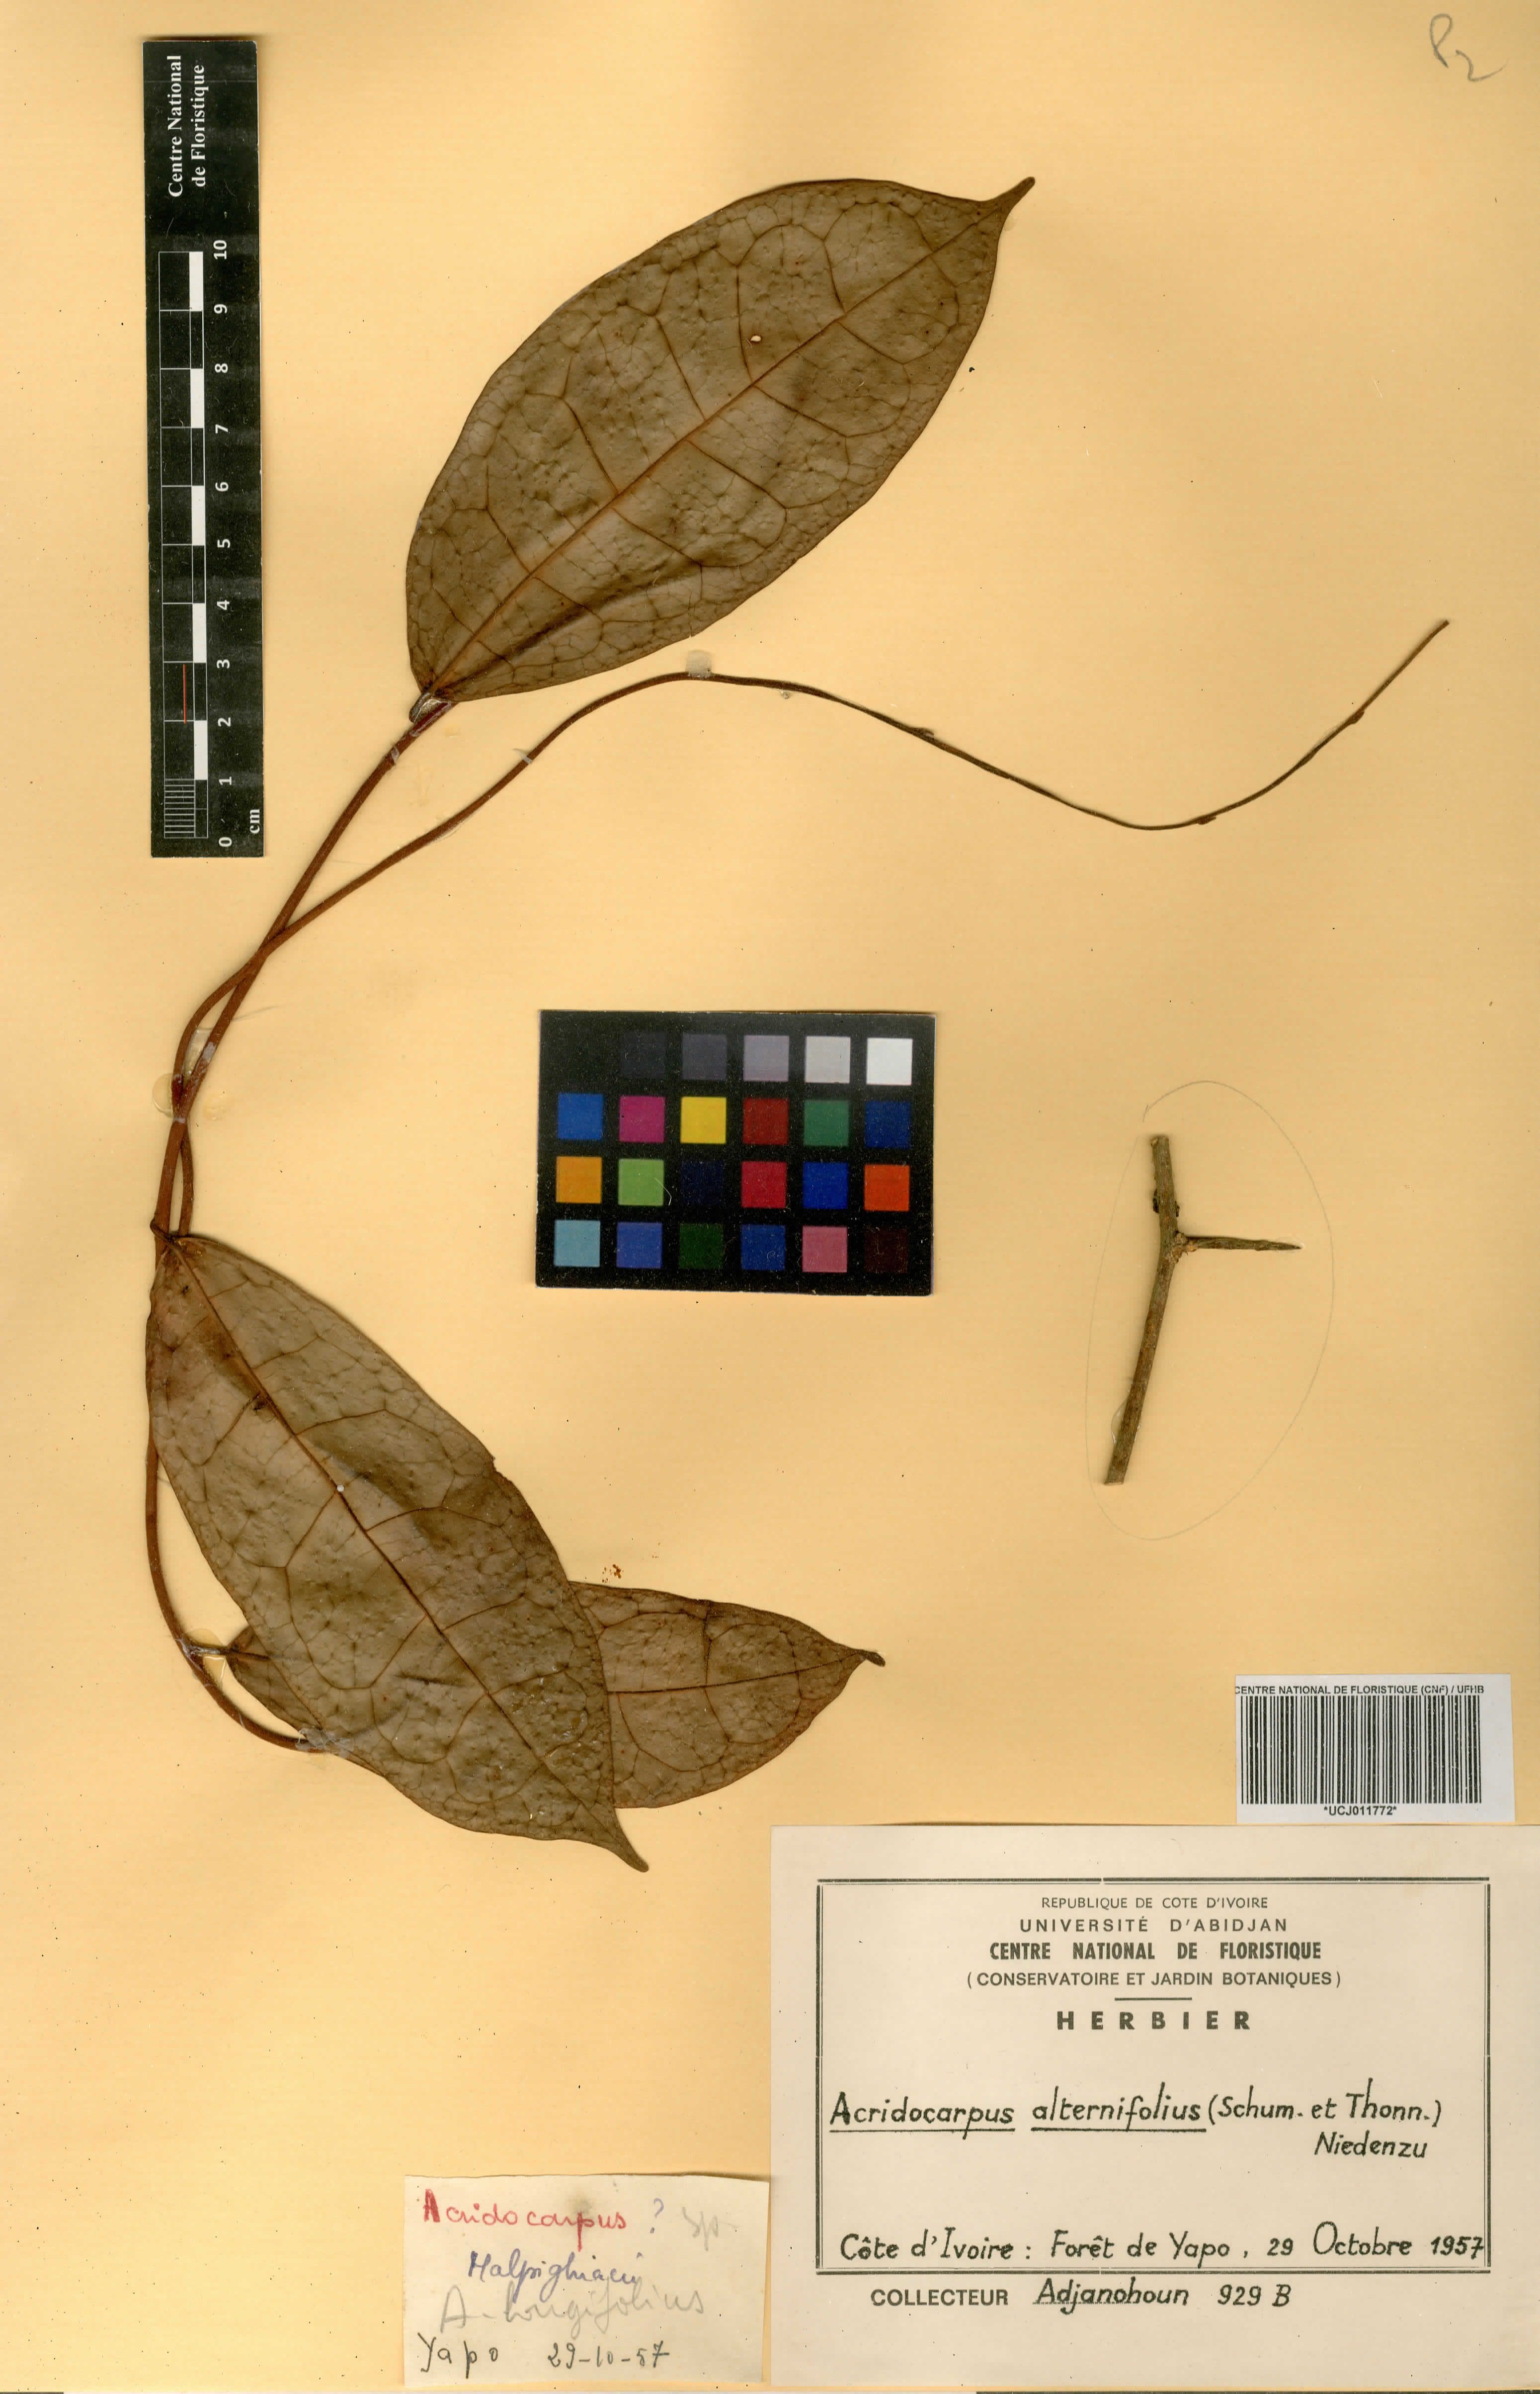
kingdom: Plantae
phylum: Tracheophyta
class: Magnoliopsida
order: Malpighiales
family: Malpighiaceae
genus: Acridocarpus
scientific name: Acridocarpus alternifolius
